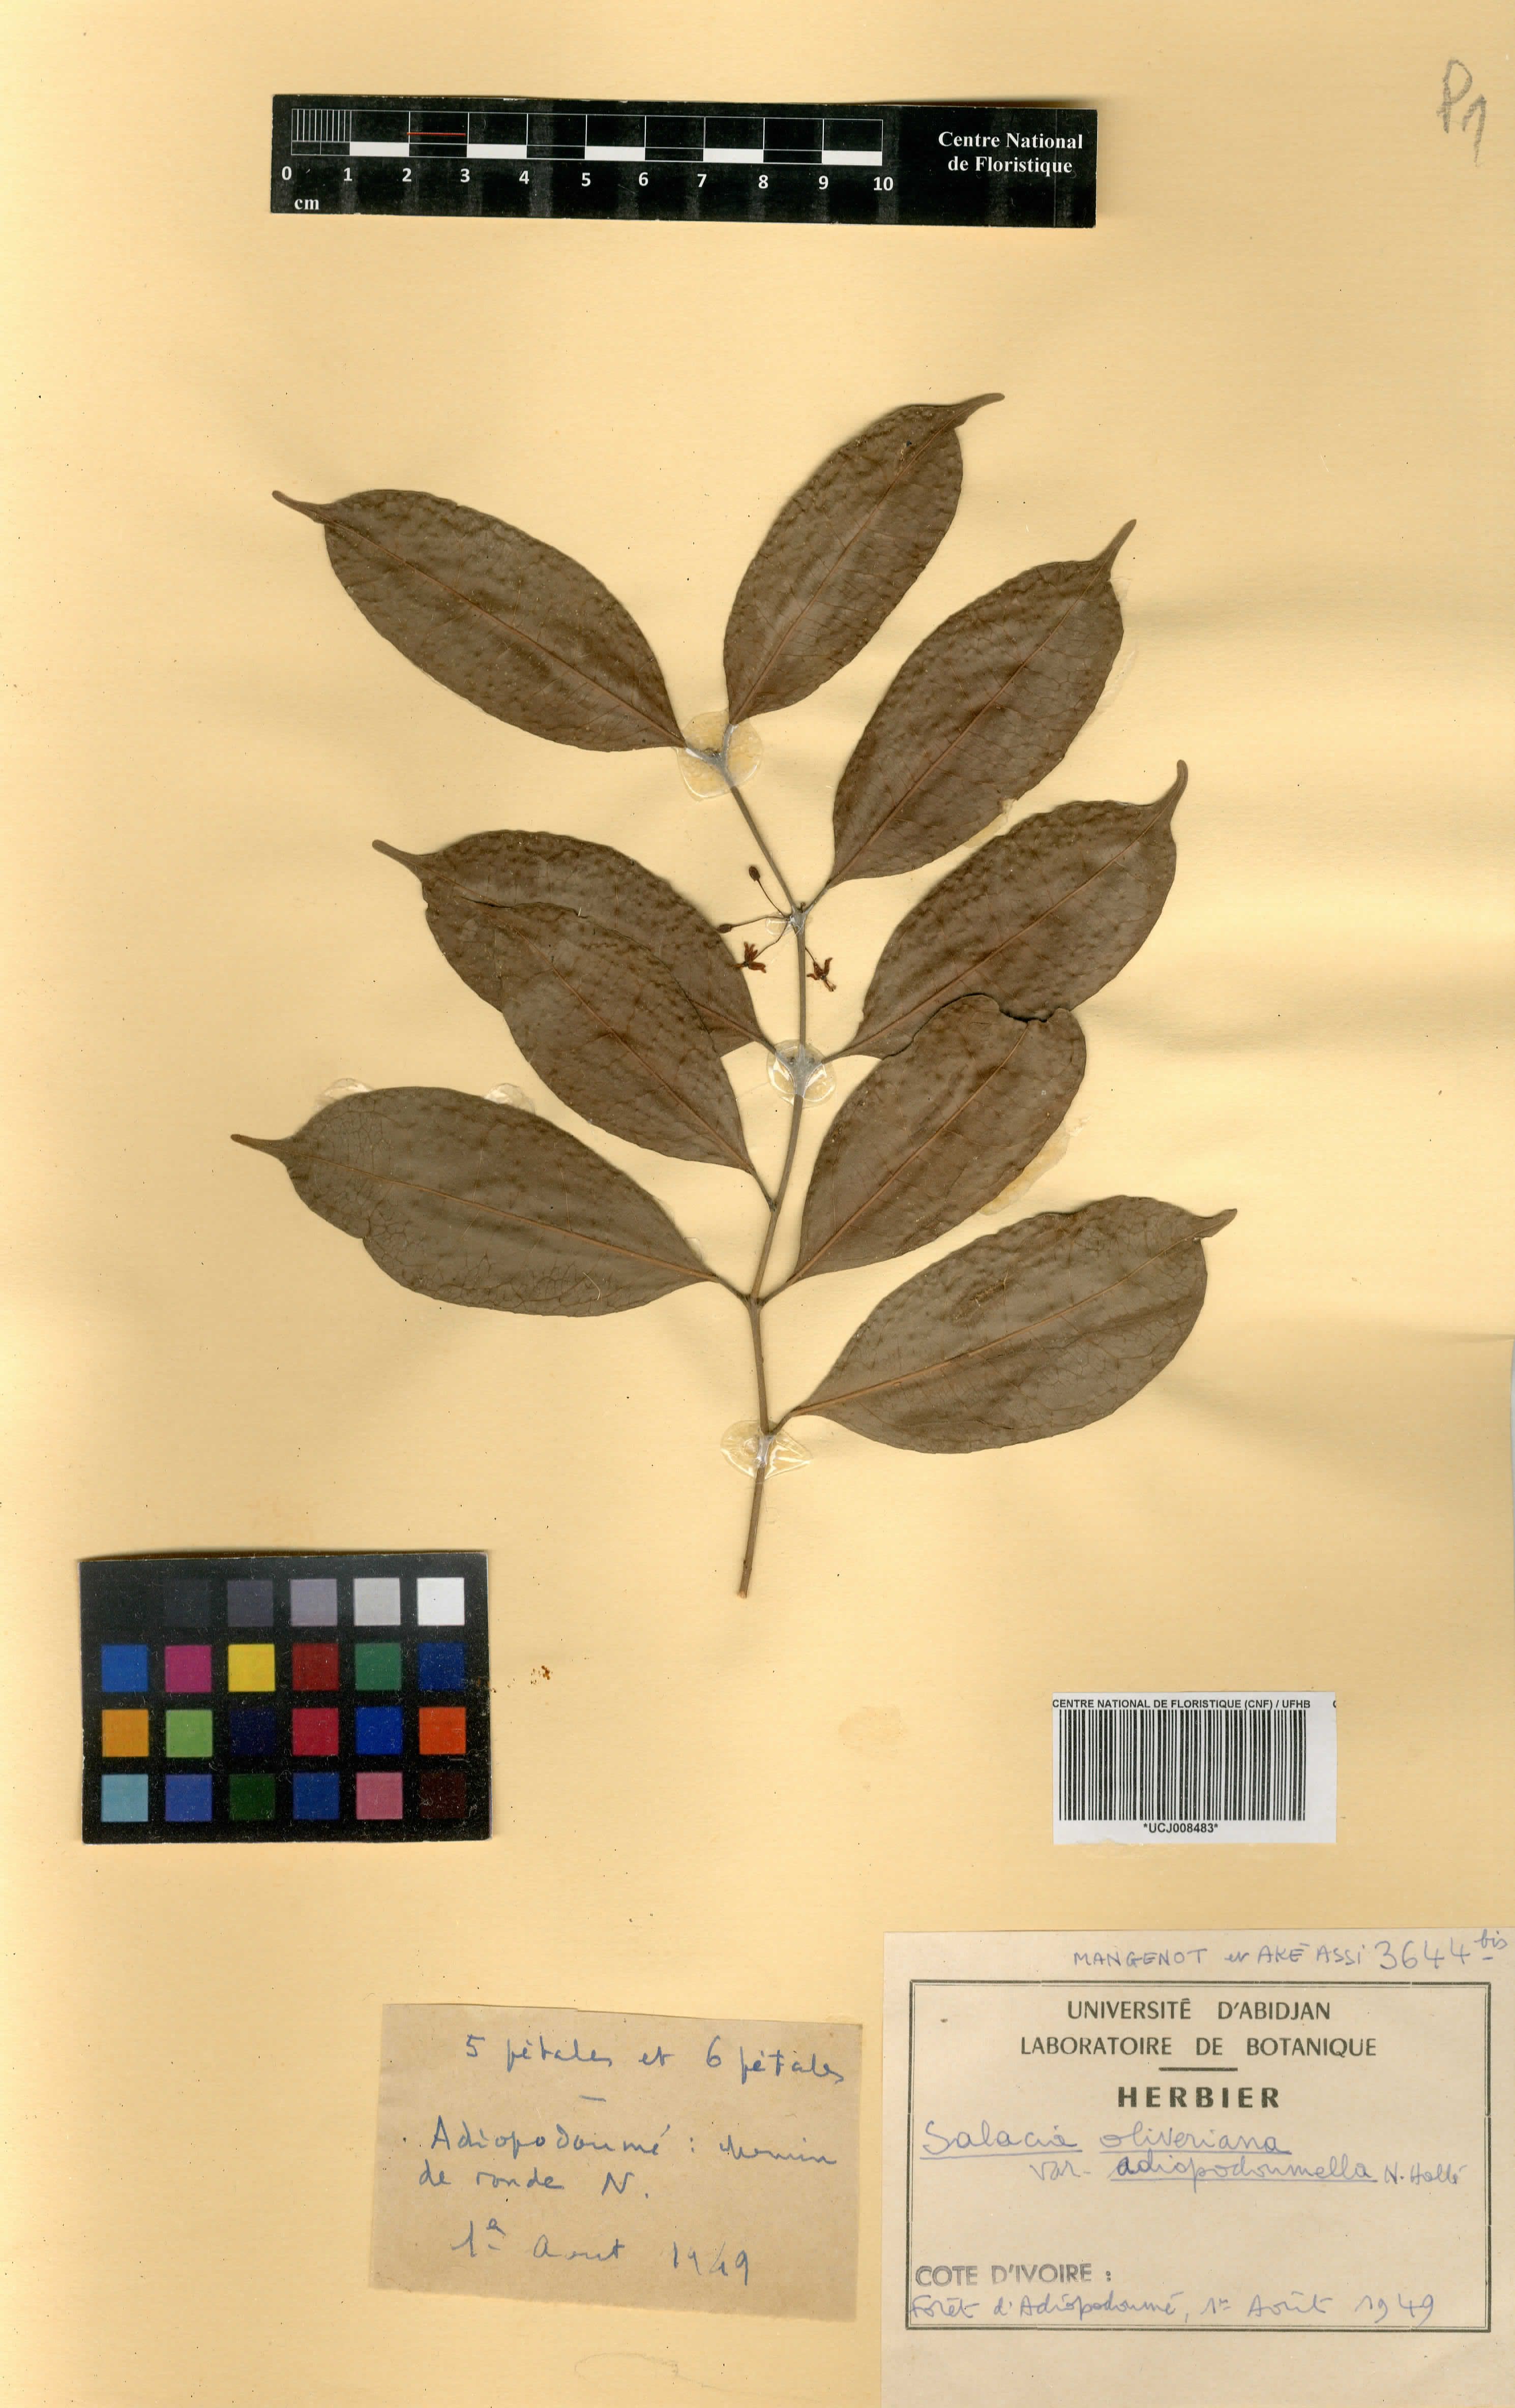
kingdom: Plantae
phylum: Tracheophyta
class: Magnoliopsida
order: Celastrales
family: Celastraceae
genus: Salacia
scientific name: Salacia oliveriana
